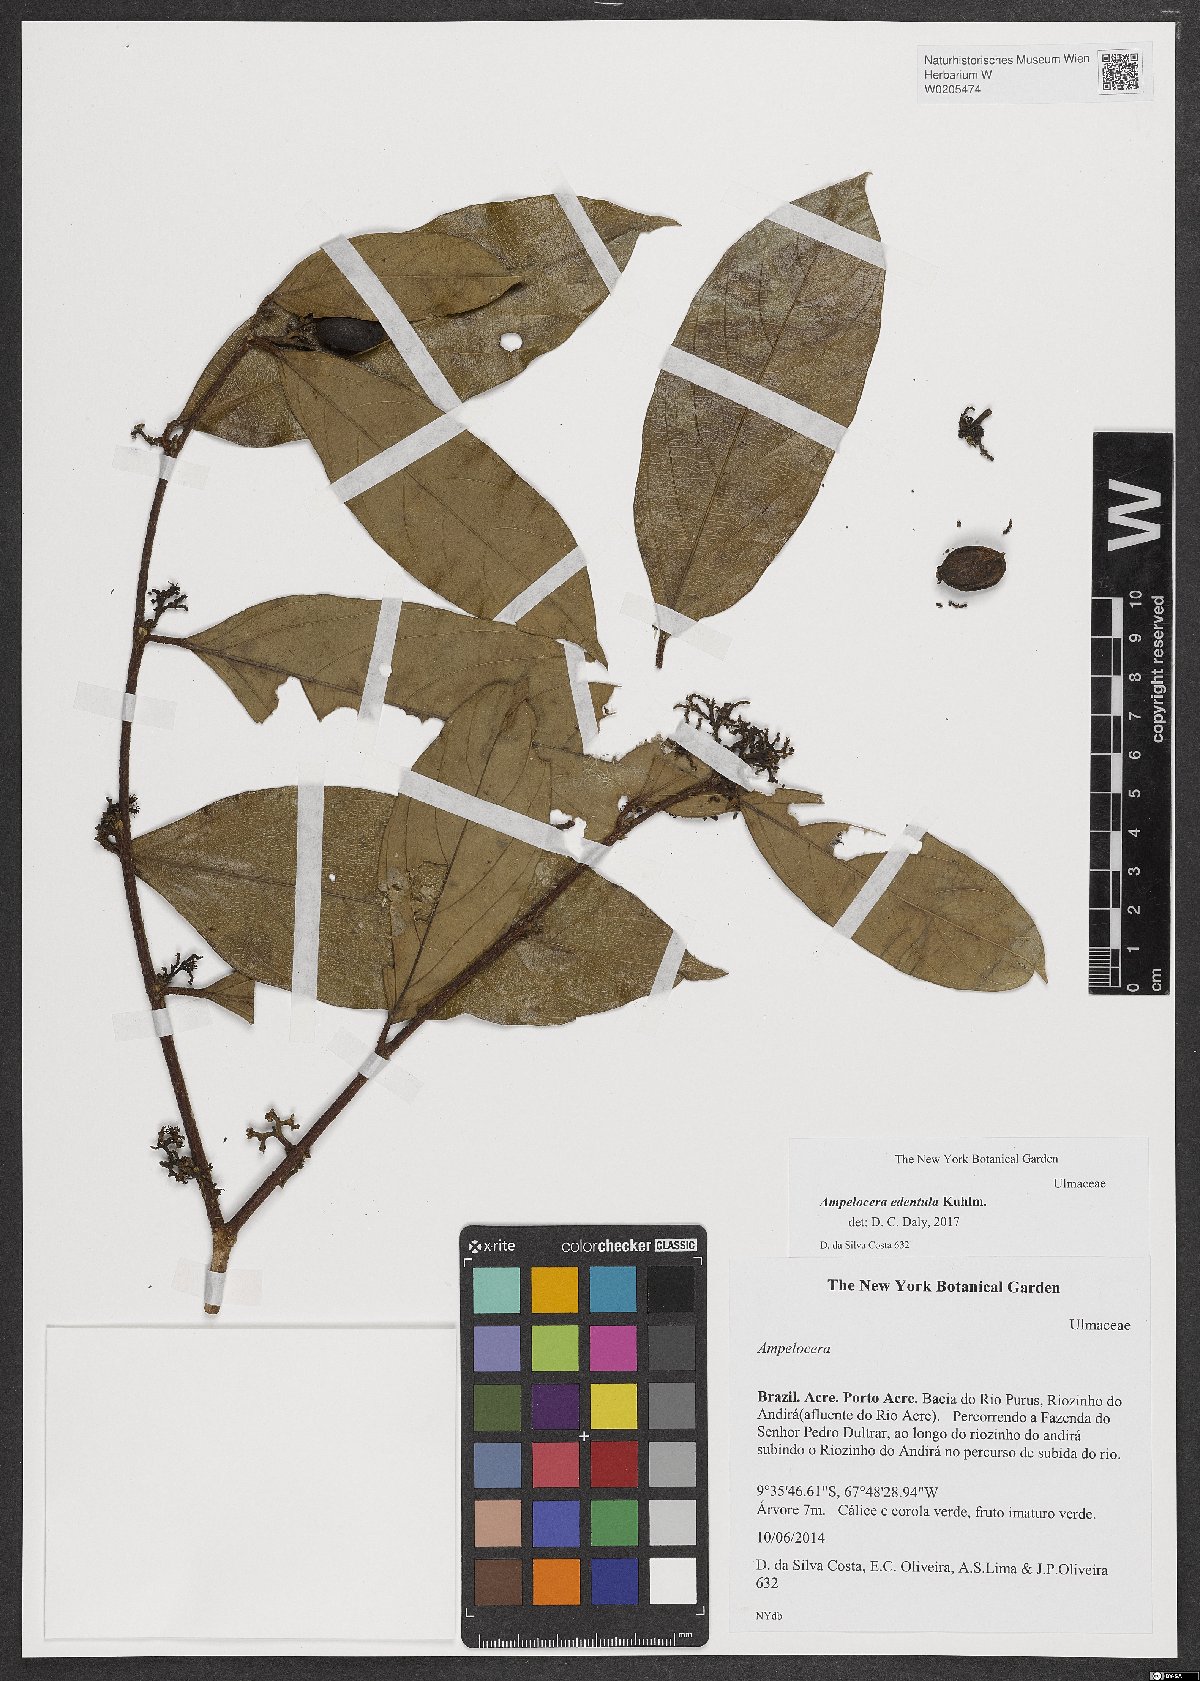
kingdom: Plantae
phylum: Tracheophyta
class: Magnoliopsida
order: Rosales
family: Cannabaceae
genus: Ampelocera
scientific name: Ampelocera edentula
